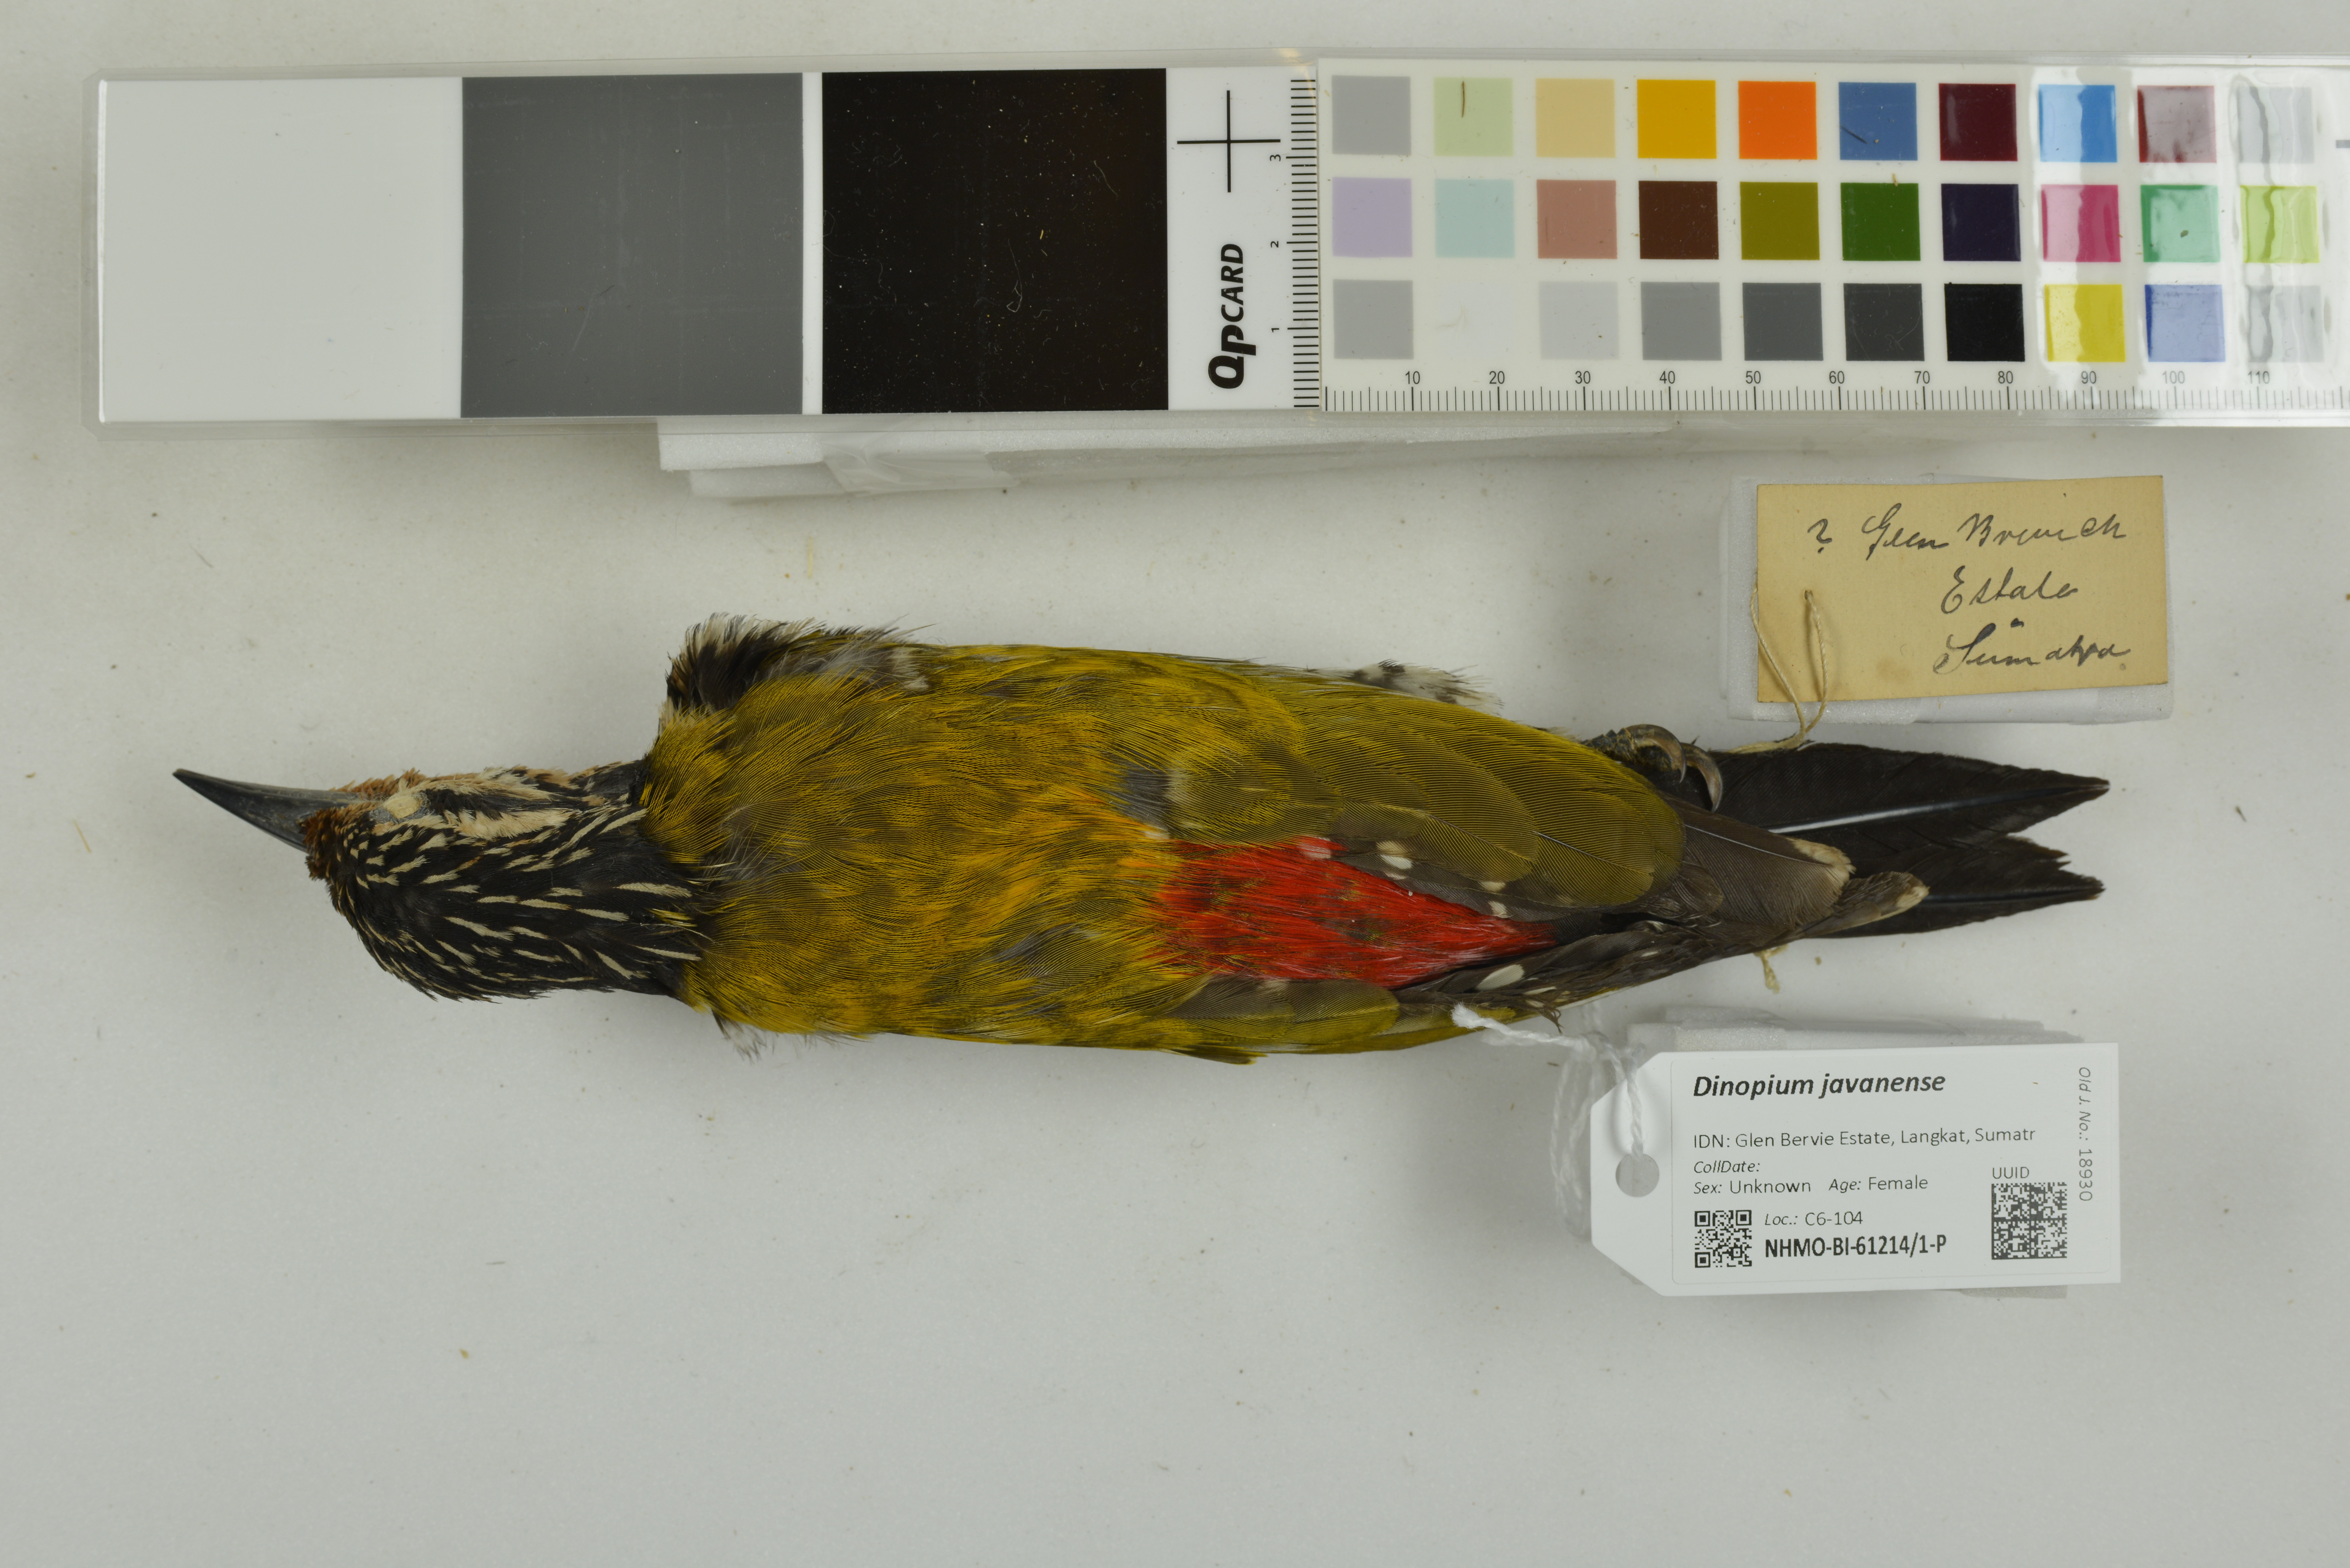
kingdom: Animalia
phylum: Chordata
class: Aves
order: Piciformes
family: Picidae
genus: Dinopium
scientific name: Dinopium javanense
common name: Common flameback
